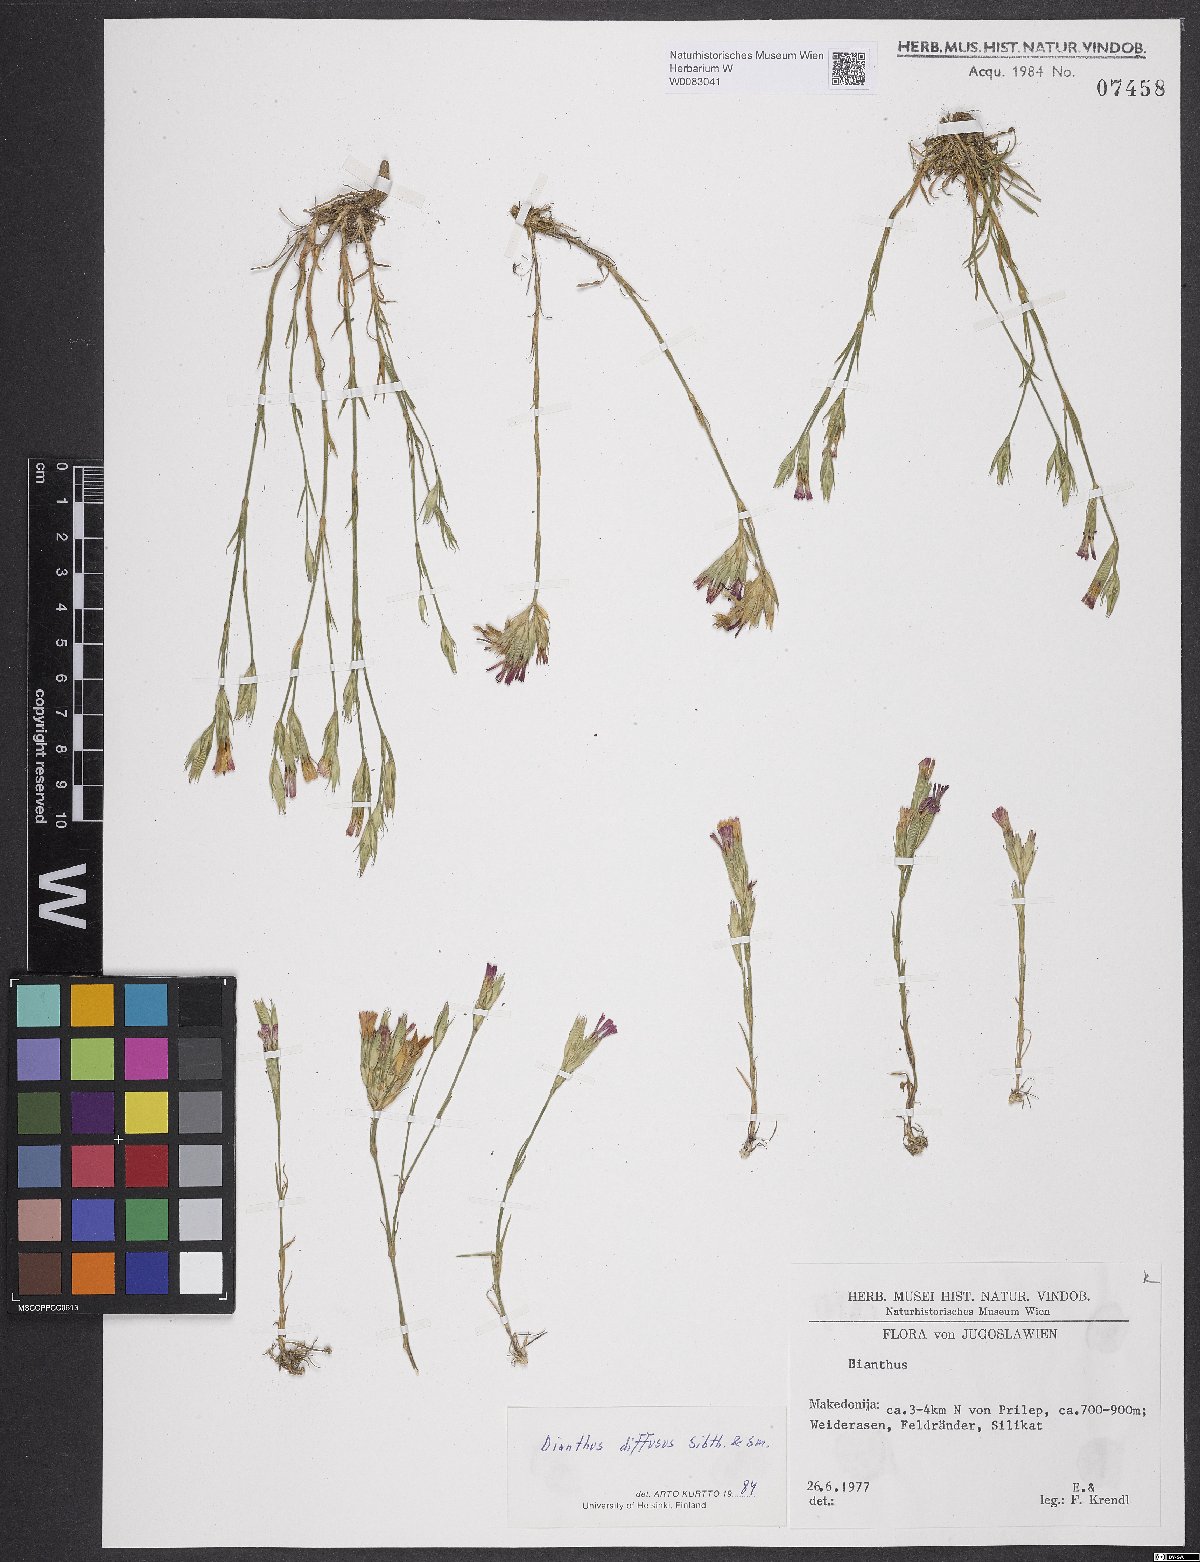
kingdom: Plantae
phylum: Tracheophyta
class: Magnoliopsida
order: Caryophyllales
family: Caryophyllaceae
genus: Dianthus
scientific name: Dianthus diffusus
